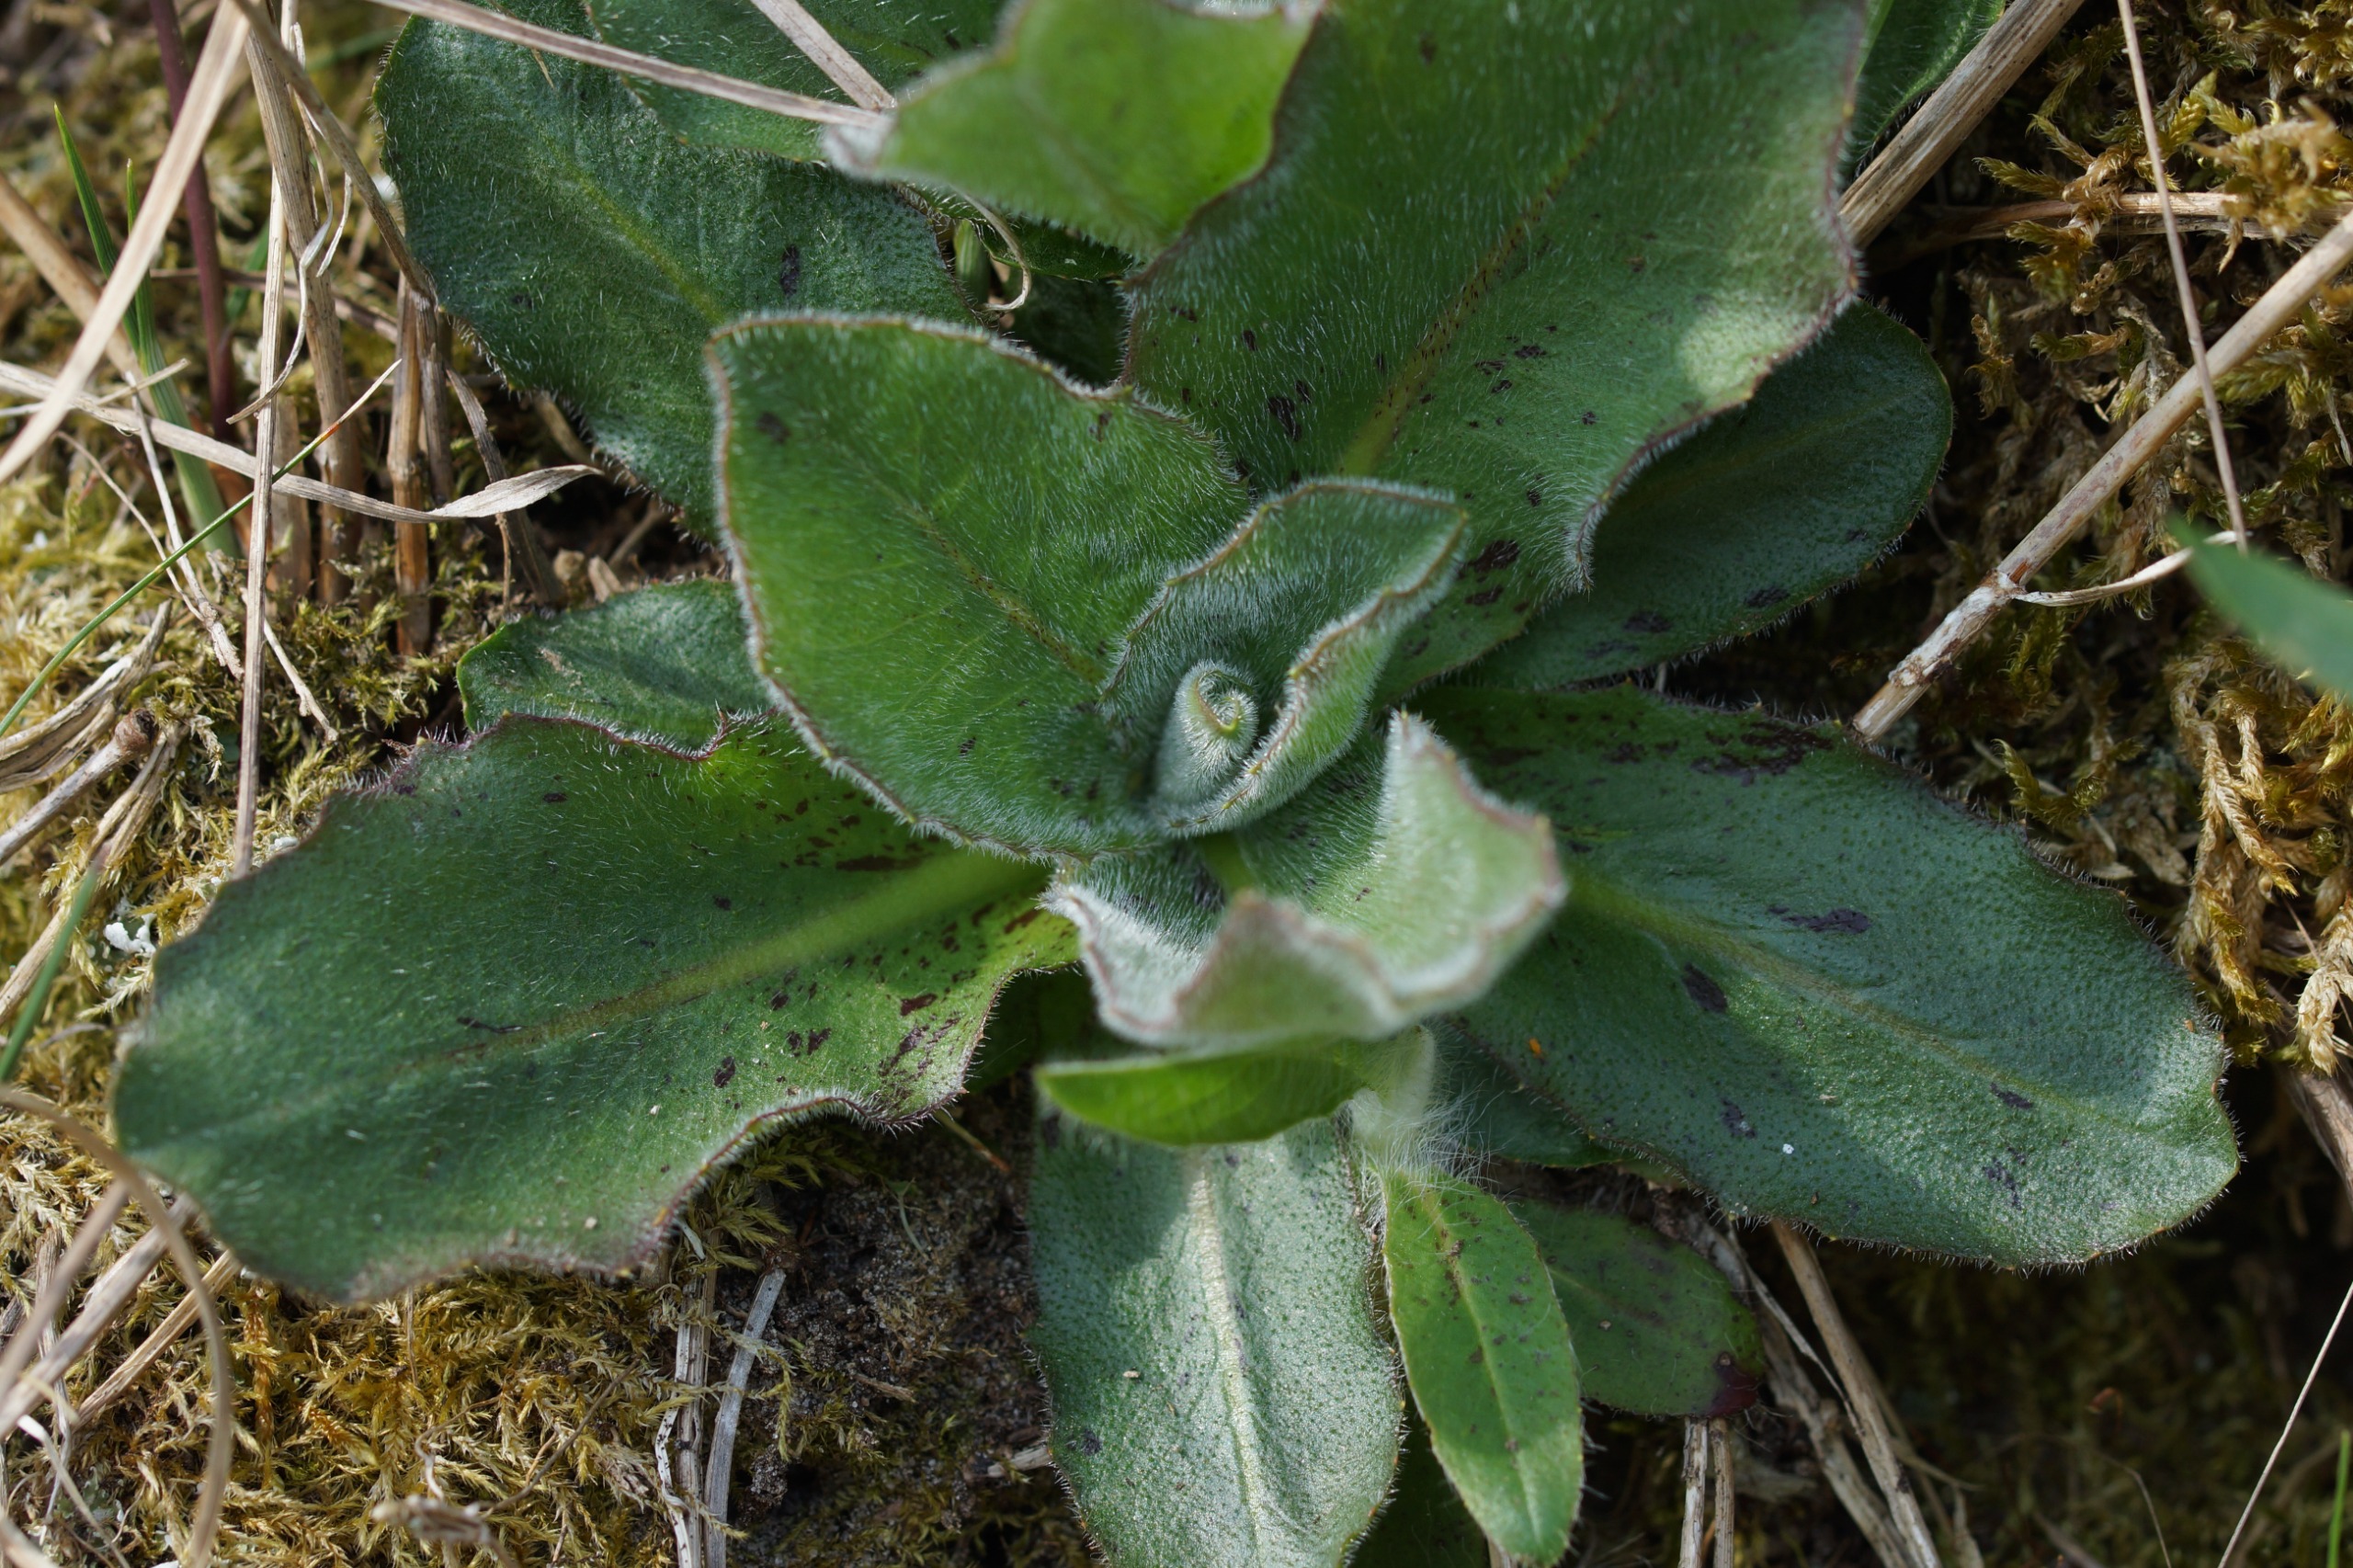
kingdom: Plantae
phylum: Tracheophyta
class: Magnoliopsida
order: Asterales
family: Asteraceae
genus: Trommsdorffia
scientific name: Trommsdorffia maculata
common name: Plettet kongepen
